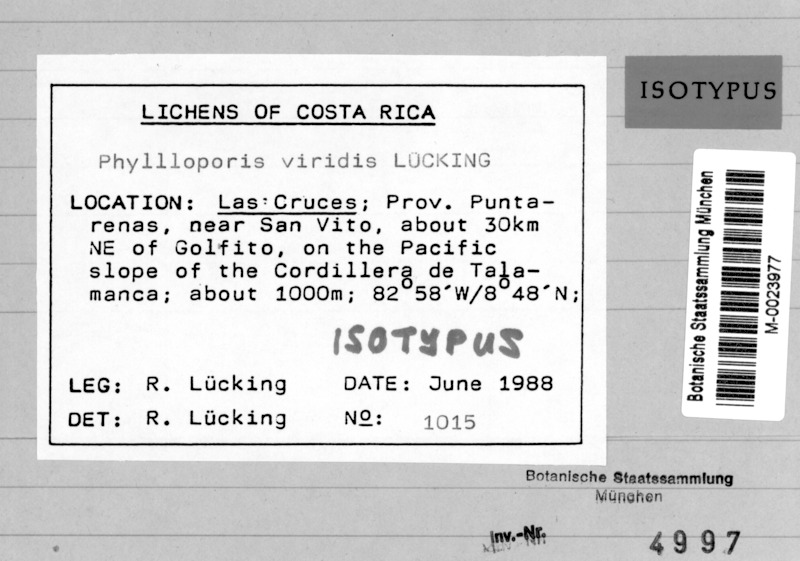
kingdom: Fungi
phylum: Ascomycota
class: Dothideomycetes
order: Strigulales
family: Strigulaceae
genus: Strigula
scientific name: Strigula
